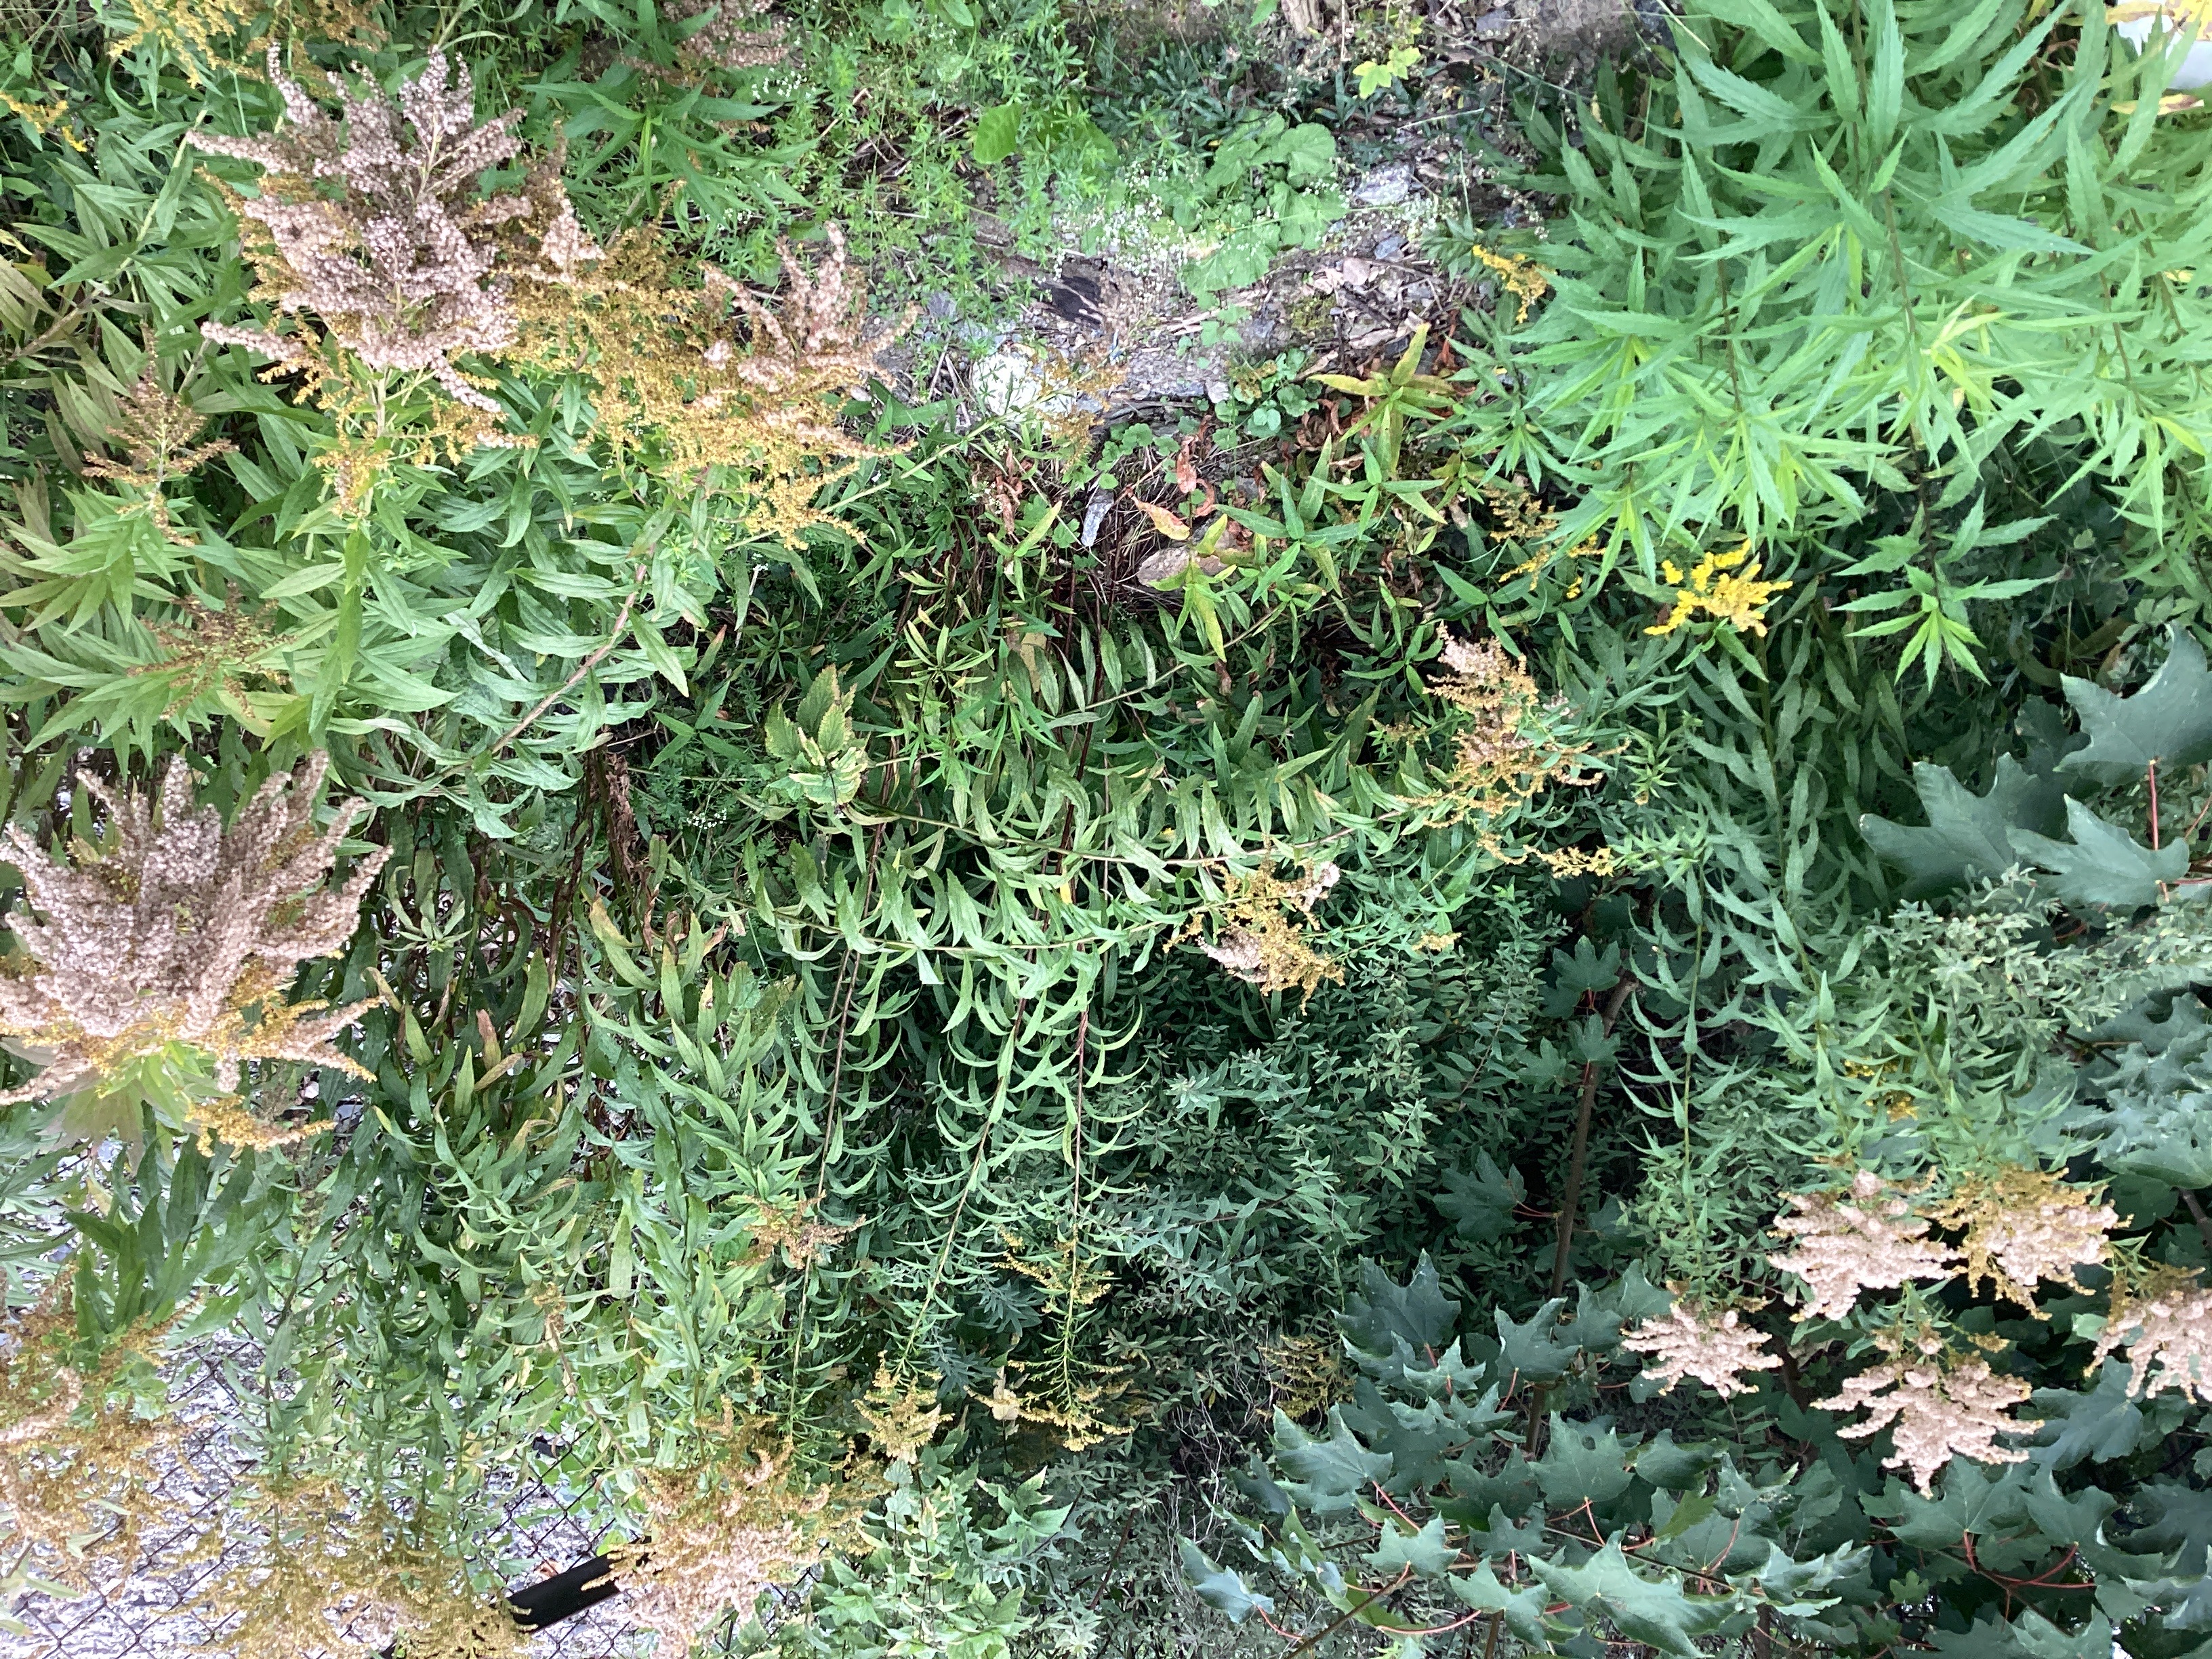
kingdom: Plantae
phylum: Tracheophyta
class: Magnoliopsida
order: Asterales
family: Asteraceae
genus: Solidago
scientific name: Solidago canadensis
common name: kanadagullris
